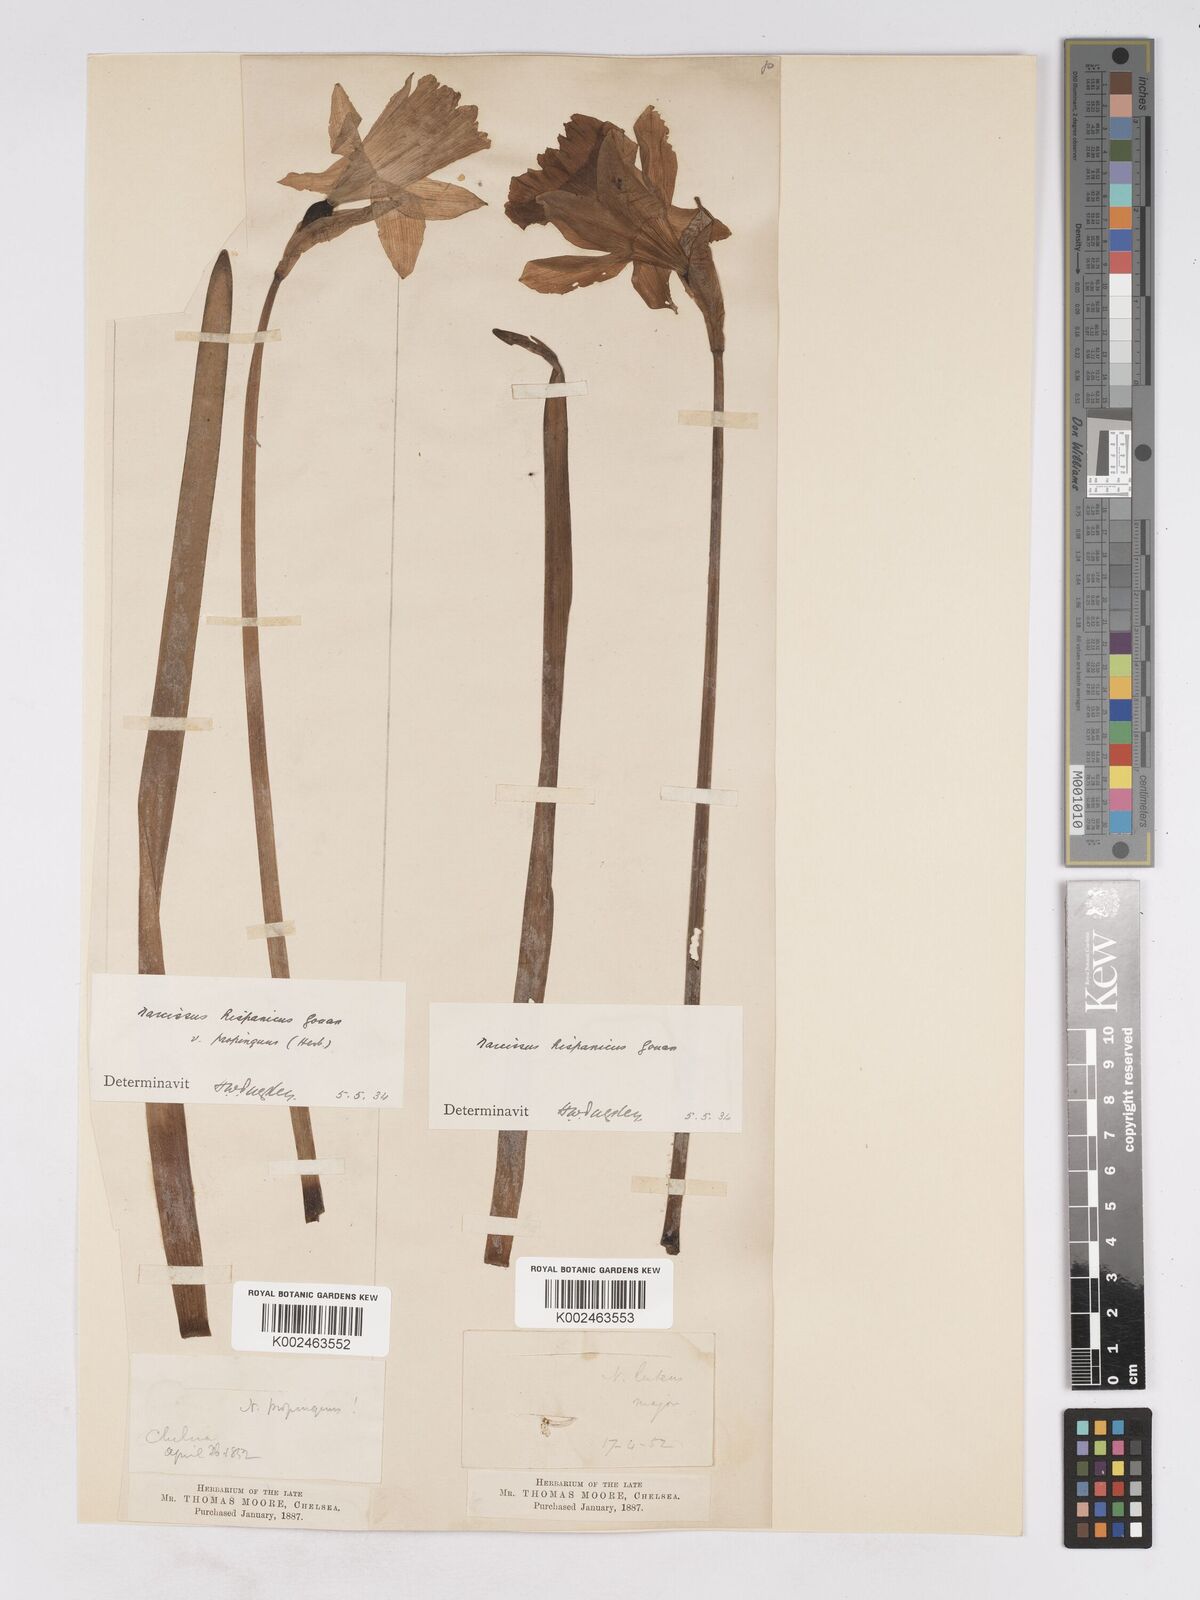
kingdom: Plantae
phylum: Tracheophyta
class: Liliopsida
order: Asparagales
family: Amaryllidaceae
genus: Narcissus
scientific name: Narcissus hispanicus
